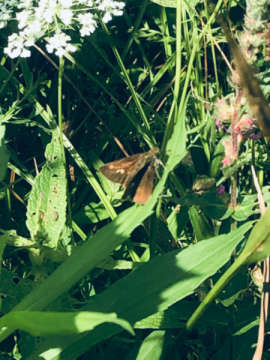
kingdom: Animalia
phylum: Arthropoda
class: Insecta
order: Lepidoptera
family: Hesperiidae
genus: Vernia
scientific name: Vernia verna
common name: Little Glassywing
